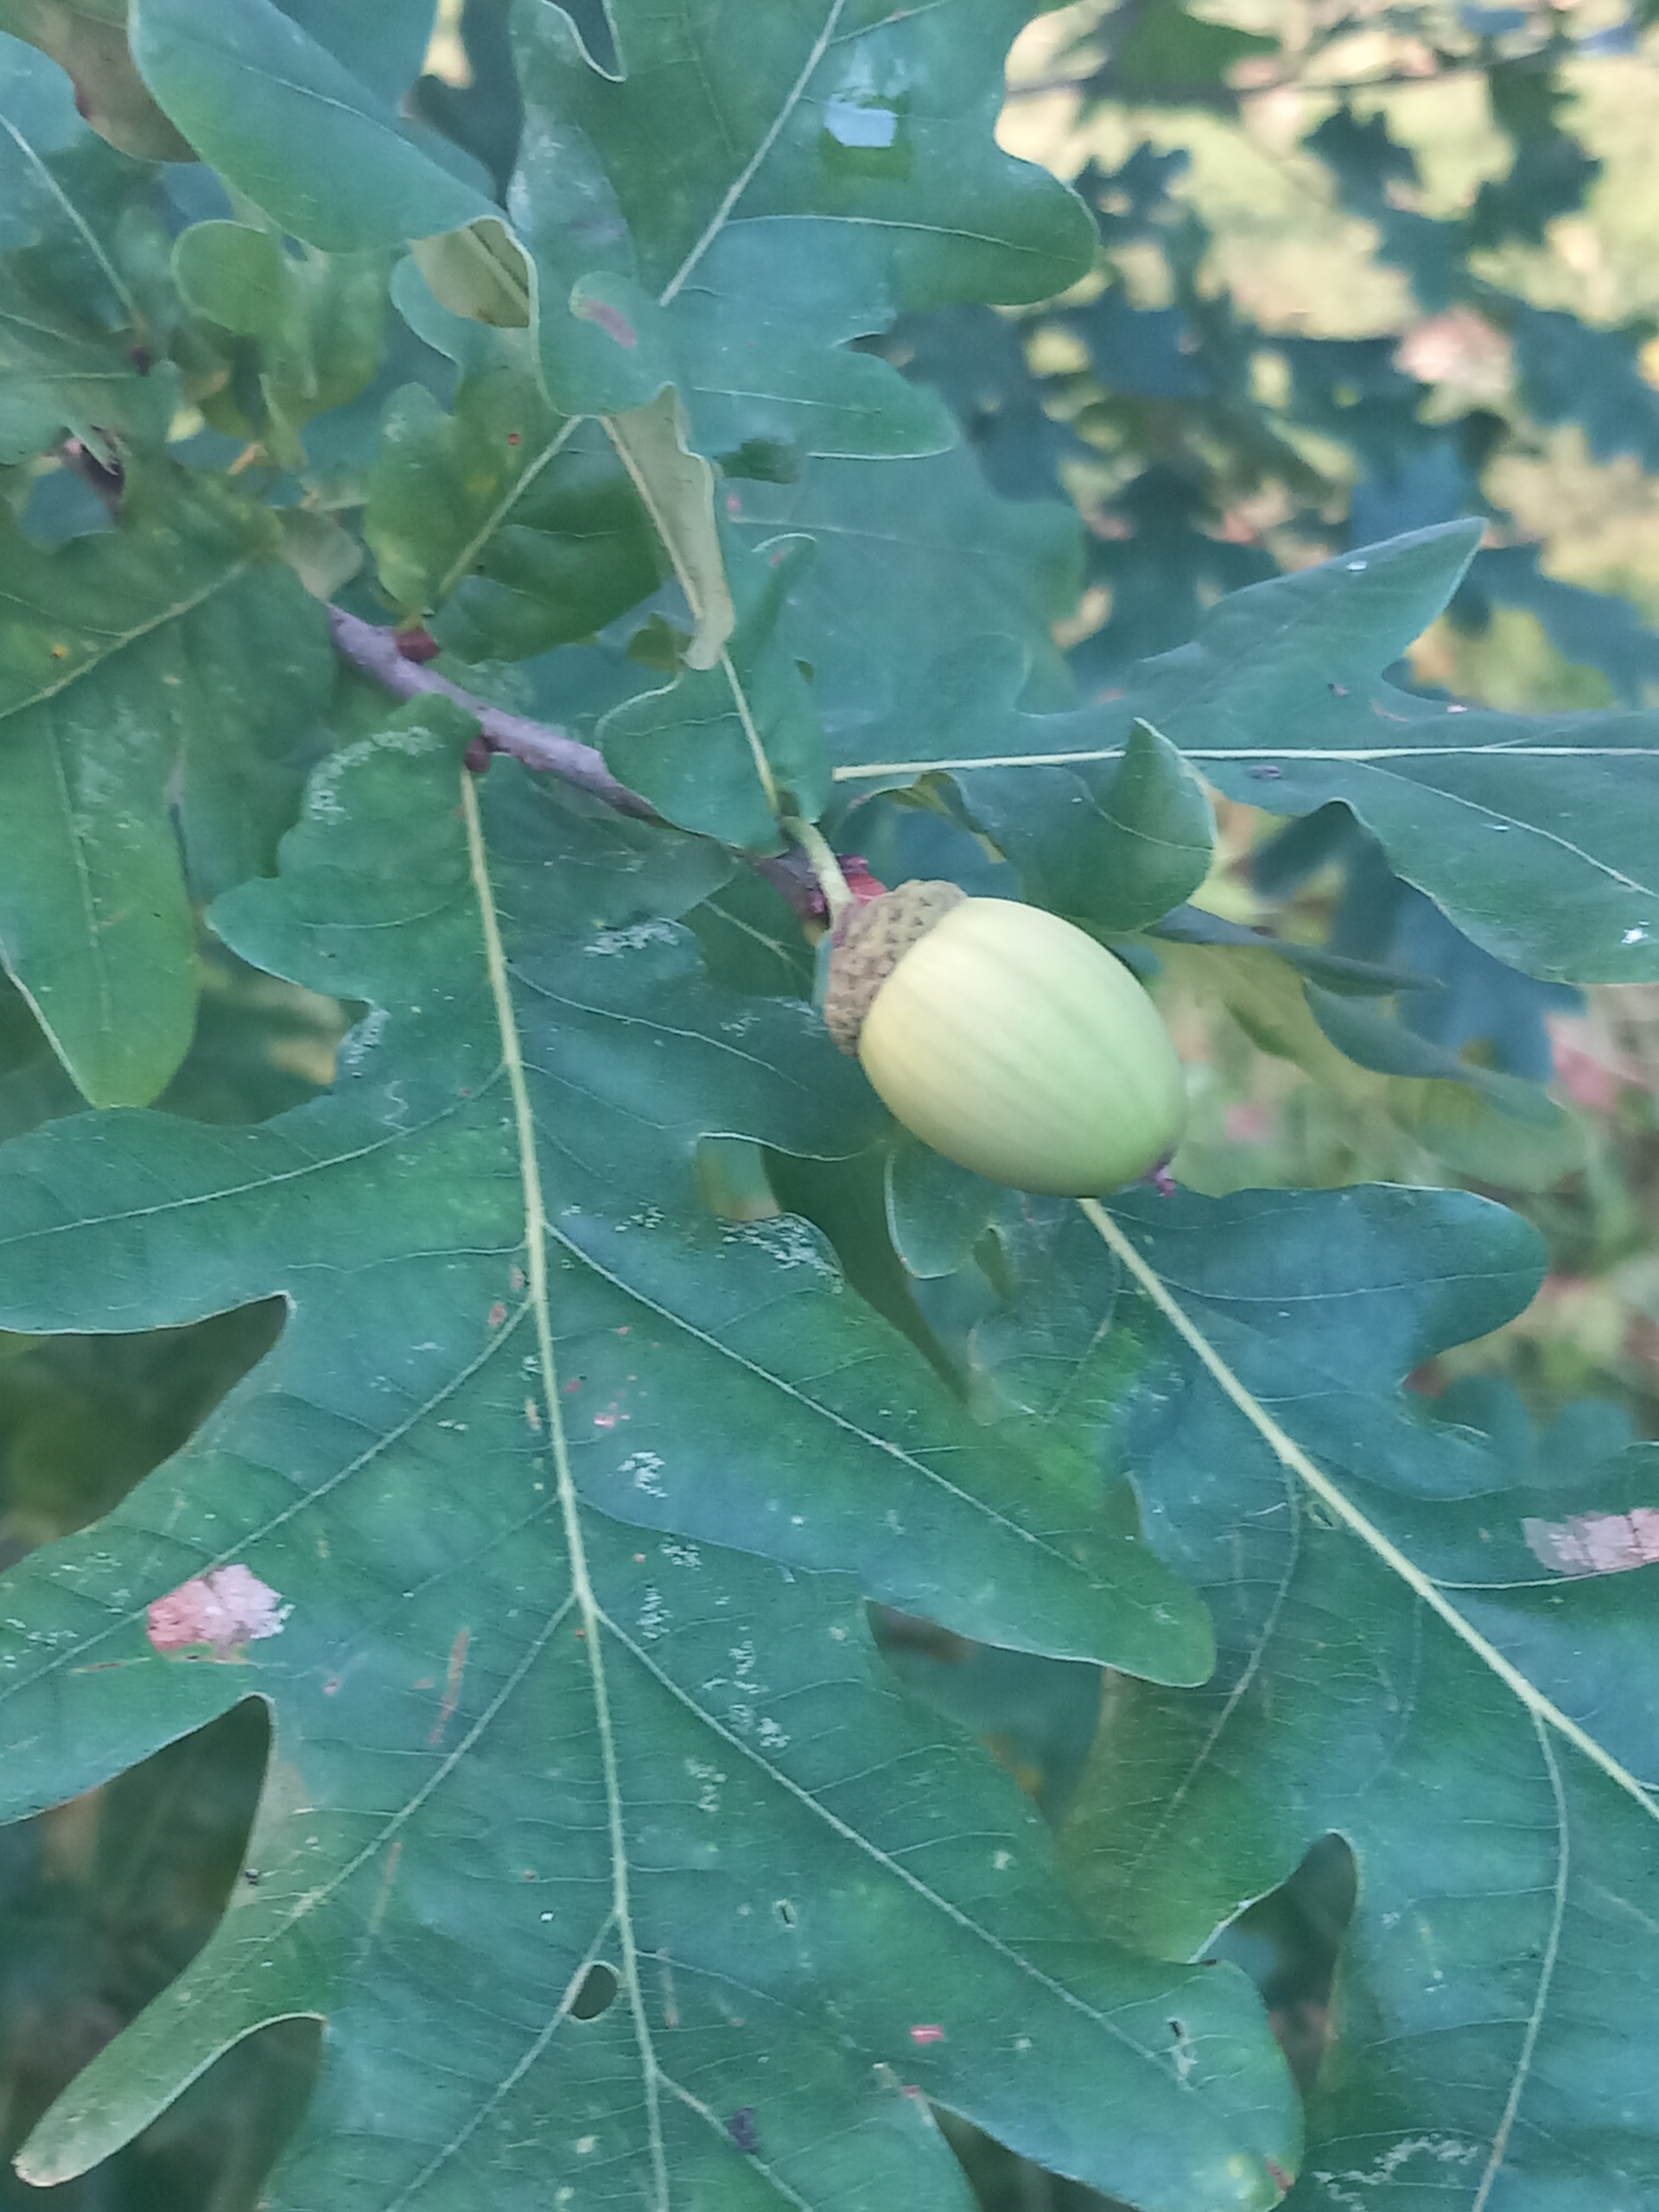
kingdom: Plantae
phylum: Tracheophyta
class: Magnoliopsida
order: Fagales
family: Fagaceae
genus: Quercus
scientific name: Quercus robur
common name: Stilk-eg/almindelig eg
